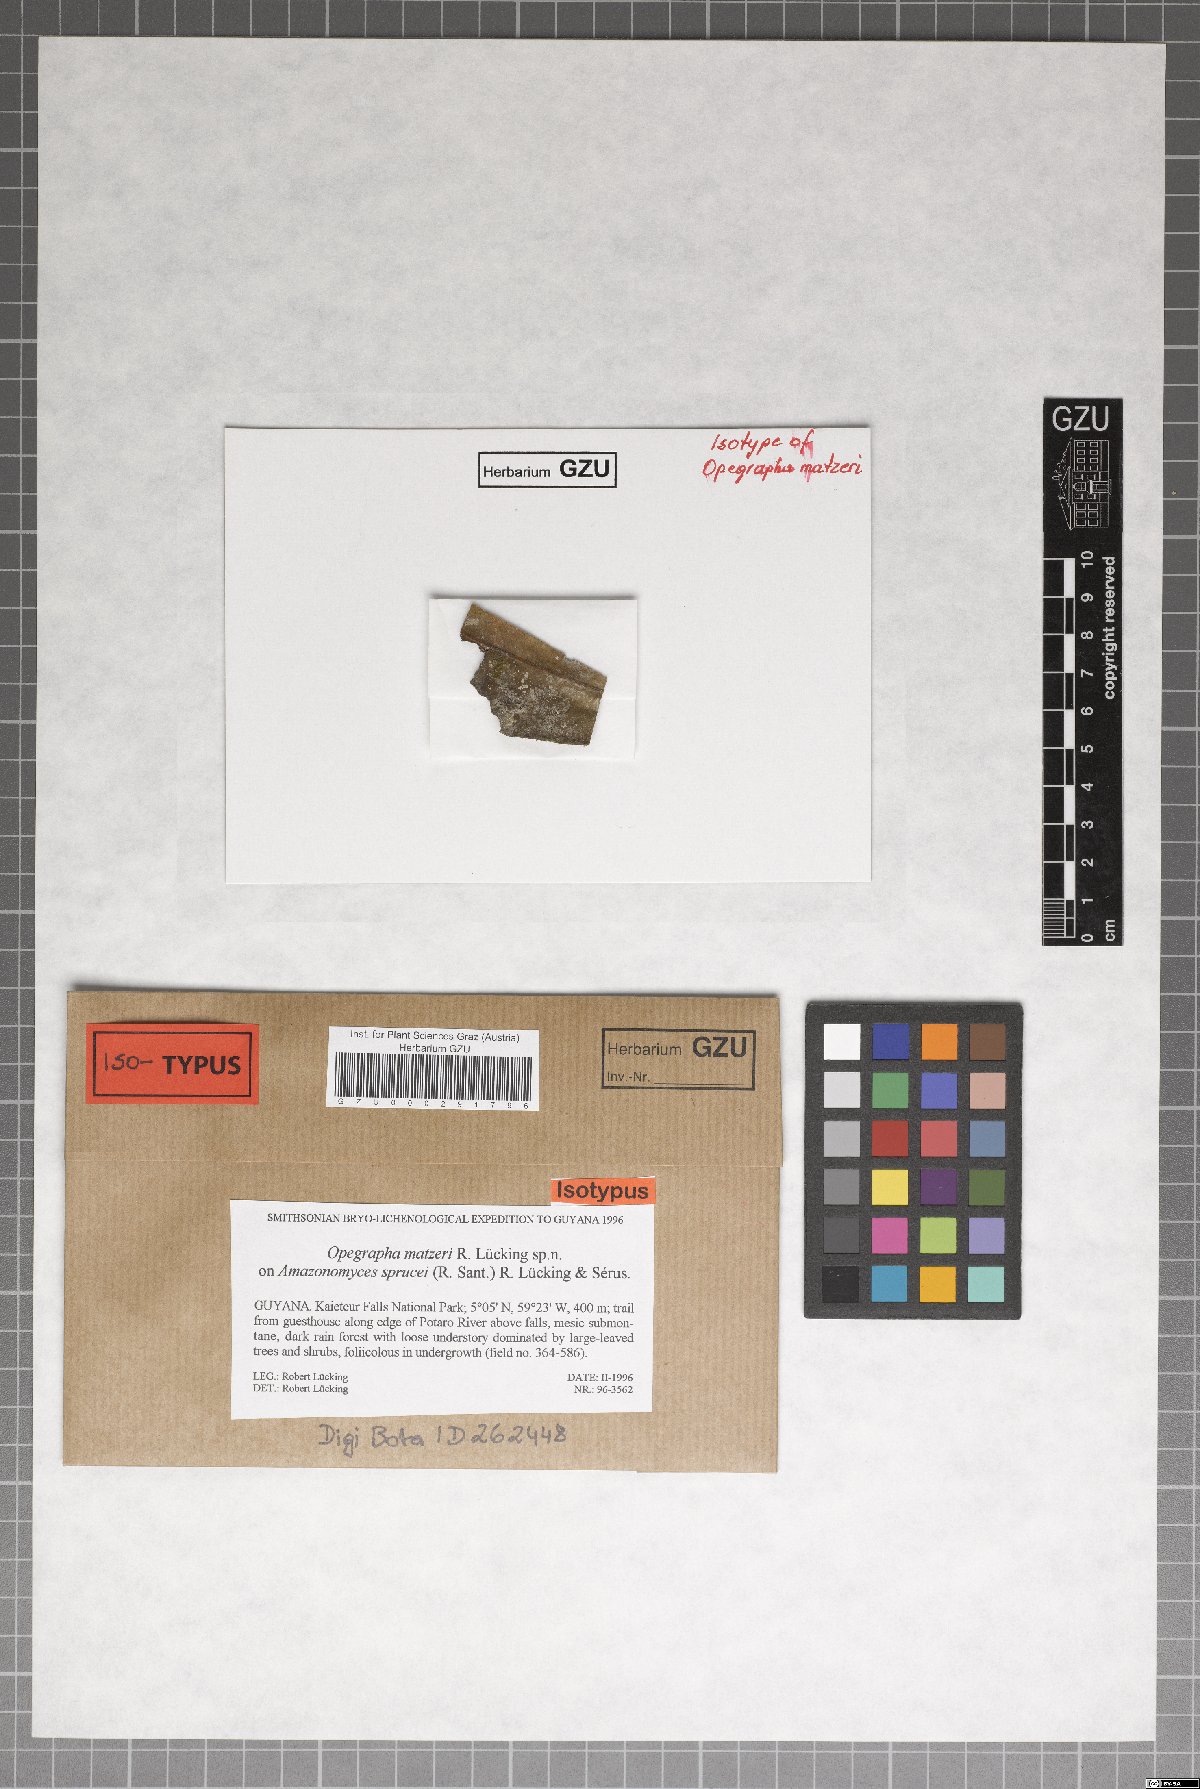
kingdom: Fungi
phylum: Ascomycota
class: Arthoniomycetes
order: Arthoniales
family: Opegraphaceae
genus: Opegrapha
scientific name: Opegrapha
